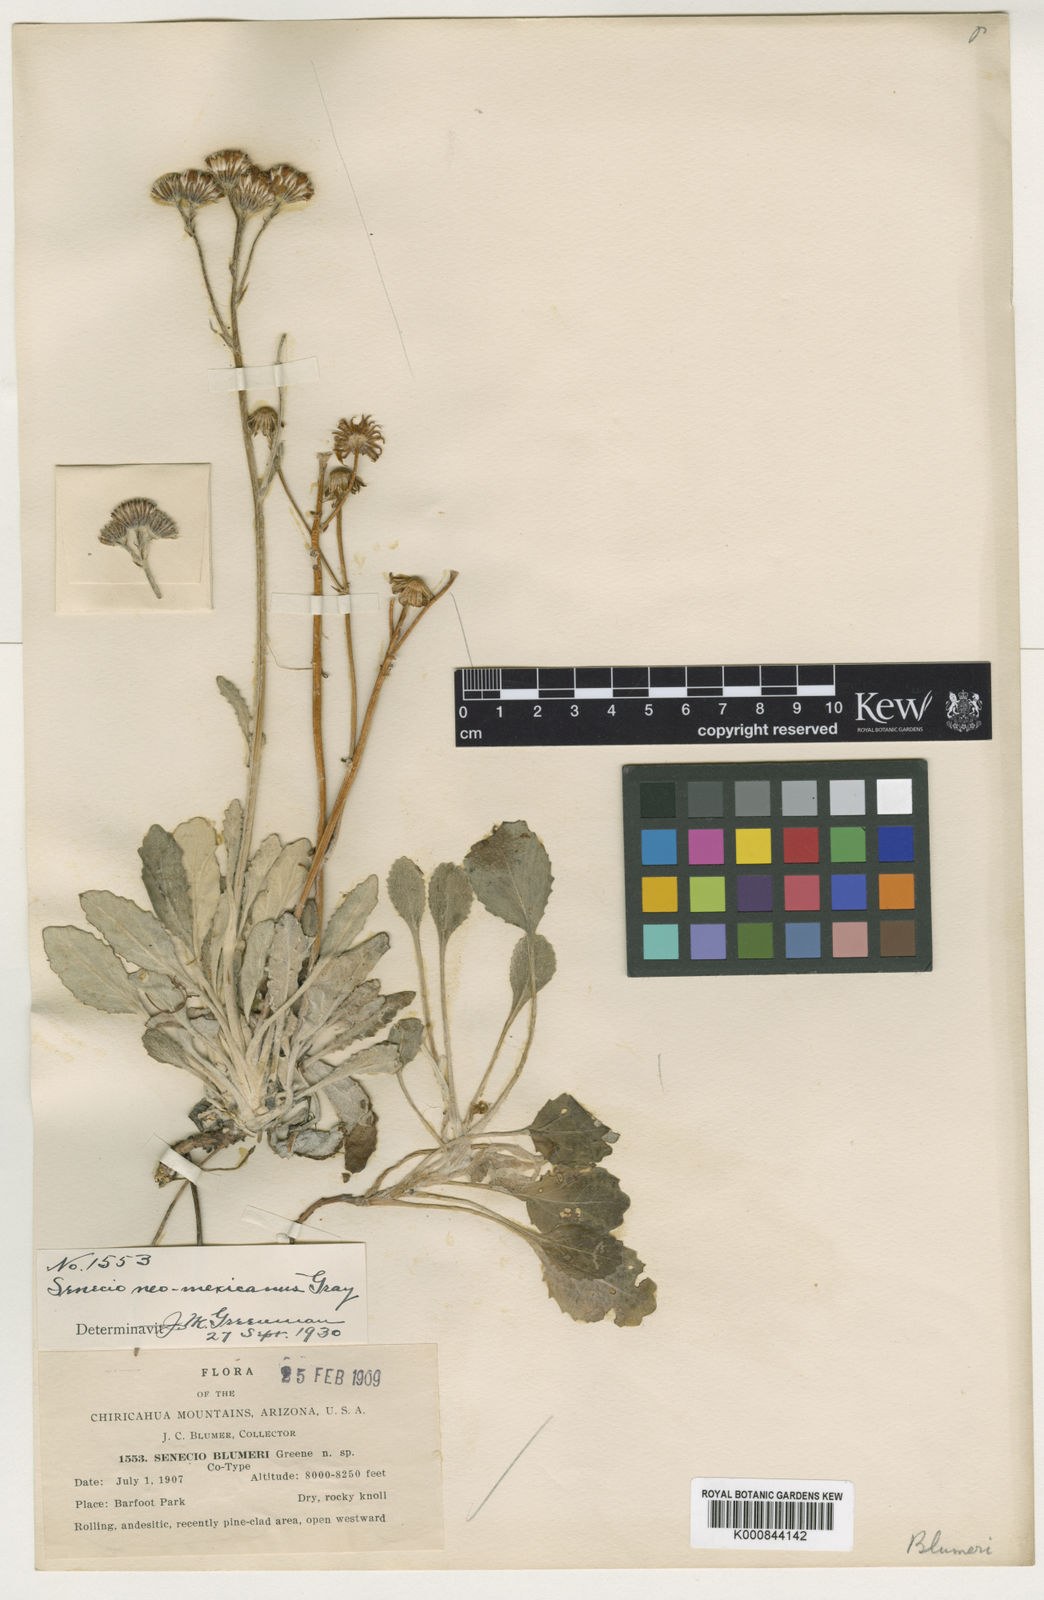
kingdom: Plantae
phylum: Tracheophyta
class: Magnoliopsida
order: Asterales
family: Asteraceae
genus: Packera
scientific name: Packera
